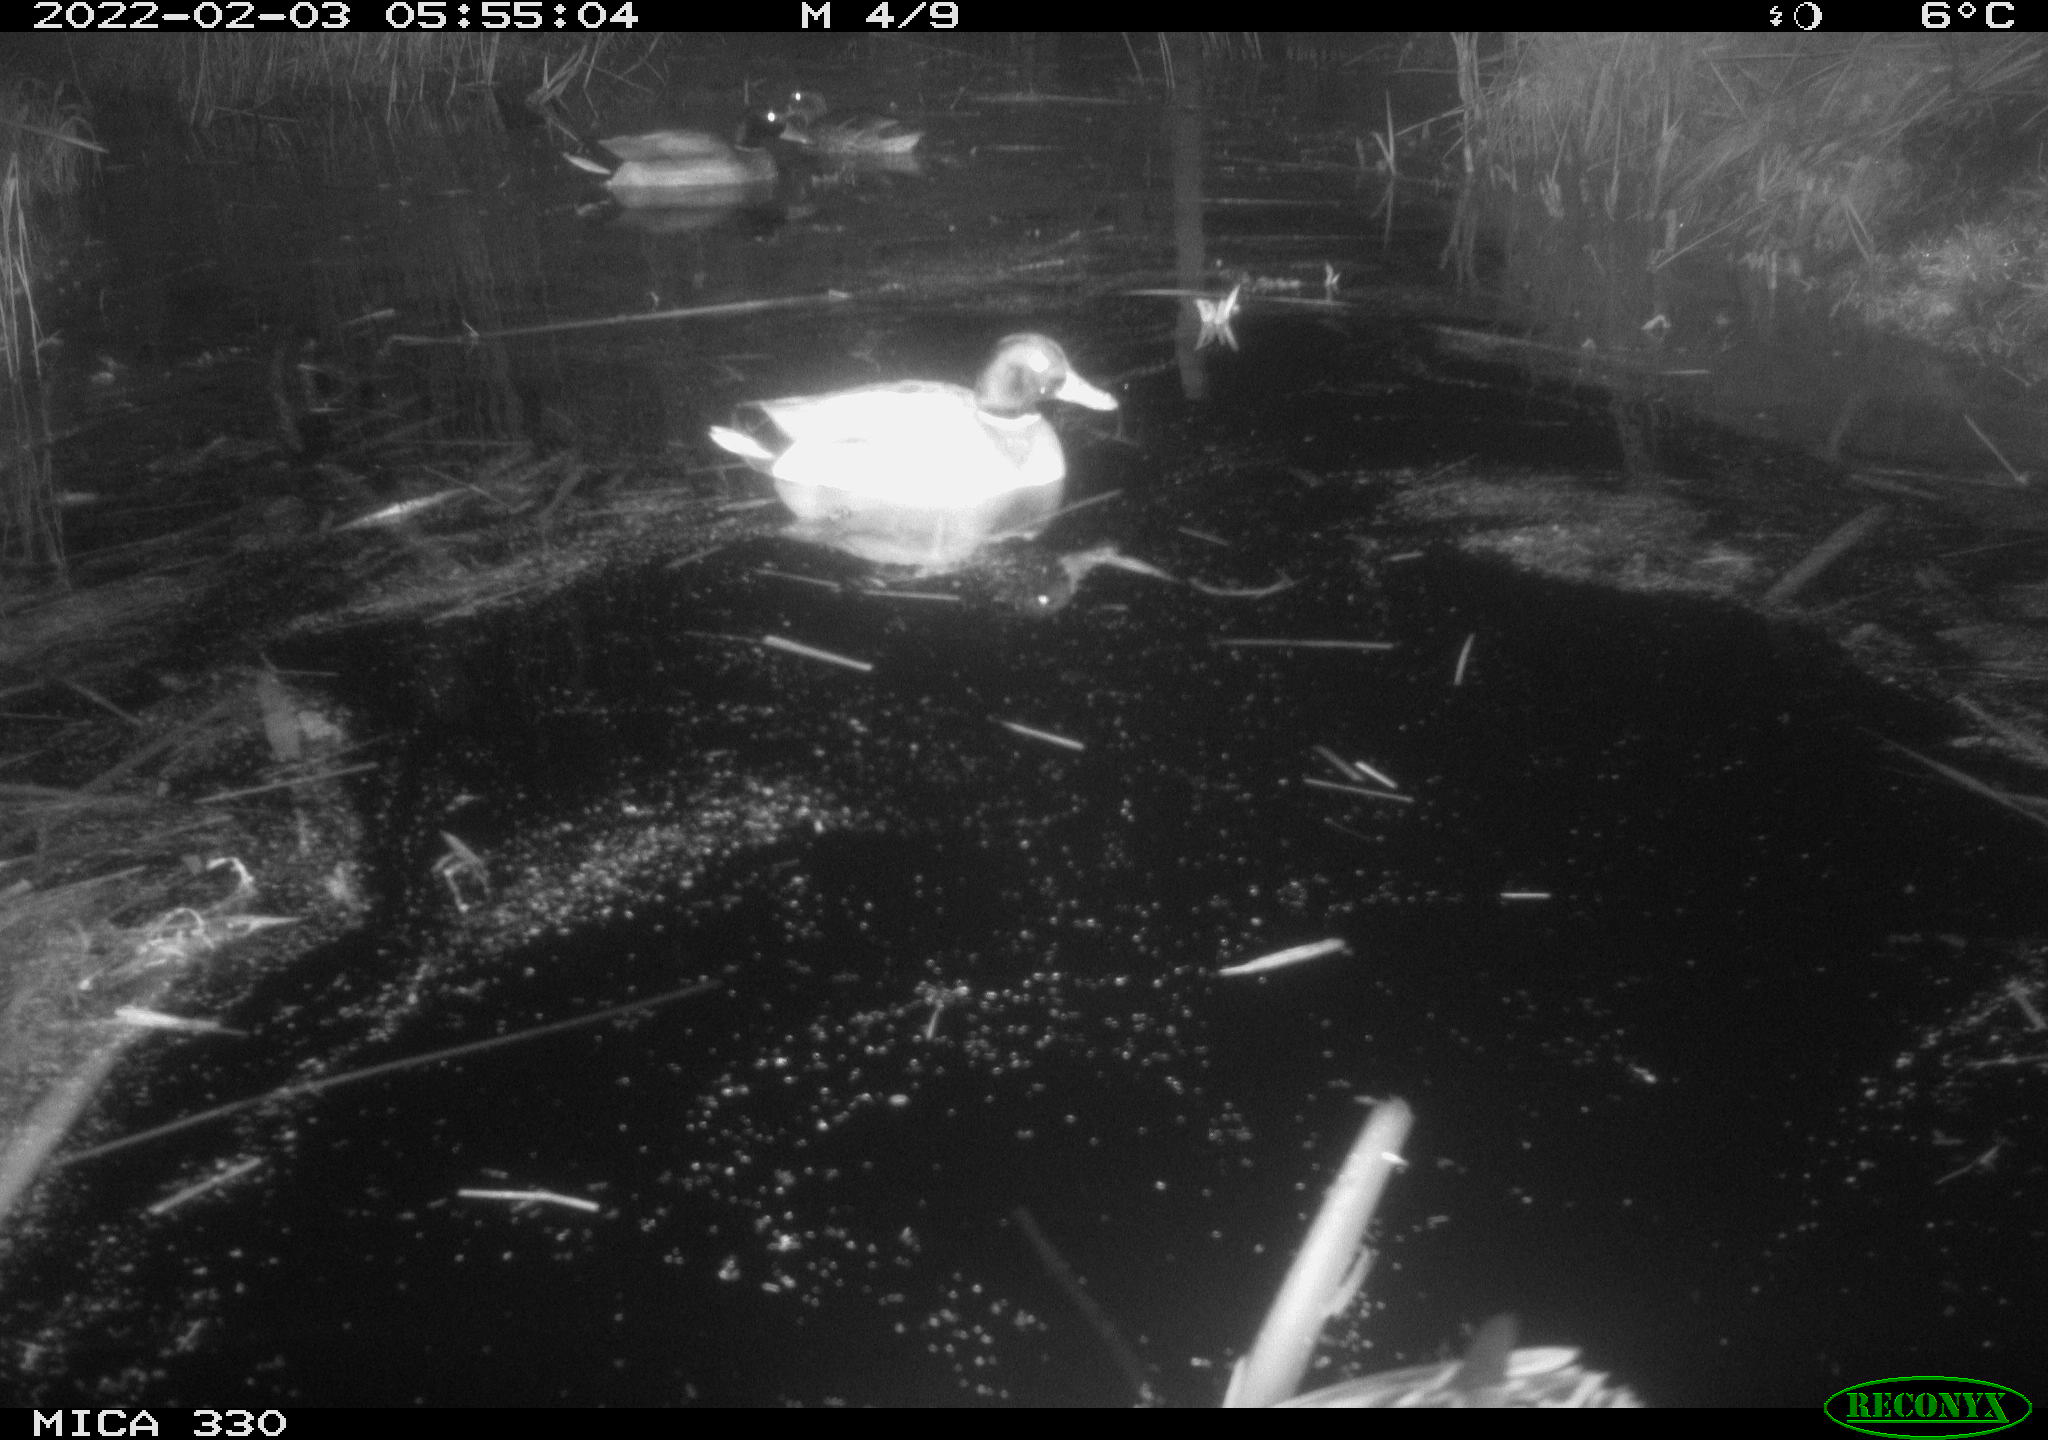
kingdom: Animalia
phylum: Chordata
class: Aves
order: Anseriformes
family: Anatidae
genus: Anas
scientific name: Anas platyrhynchos
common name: Mallard
